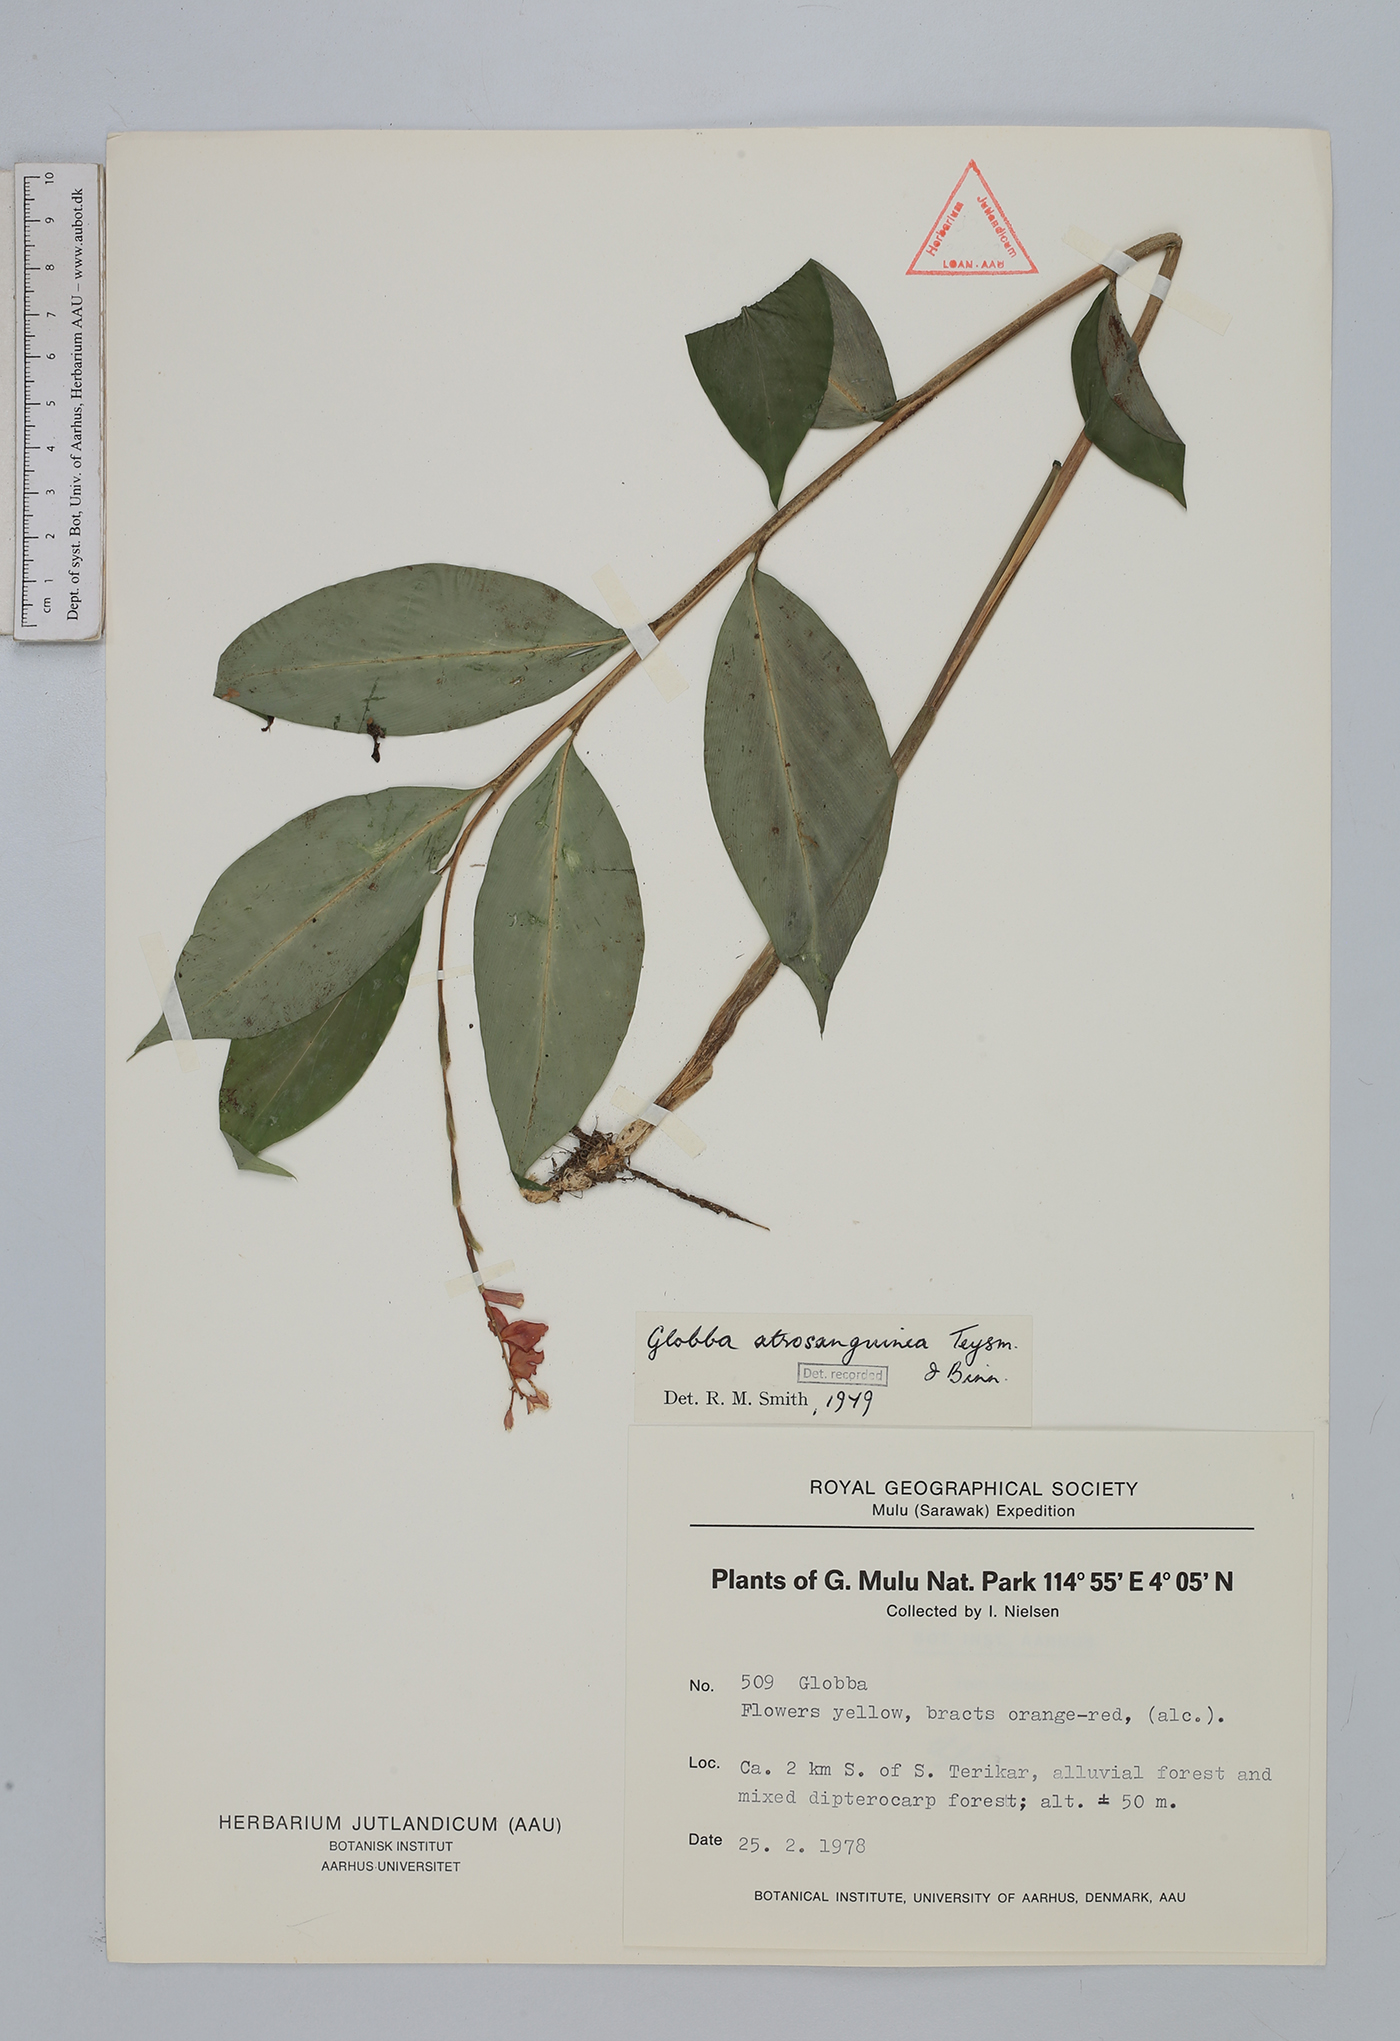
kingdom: Plantae
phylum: Tracheophyta
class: Liliopsida
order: Zingiberales
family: Zingiberaceae
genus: Globba
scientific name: Globba atrosanguinea
